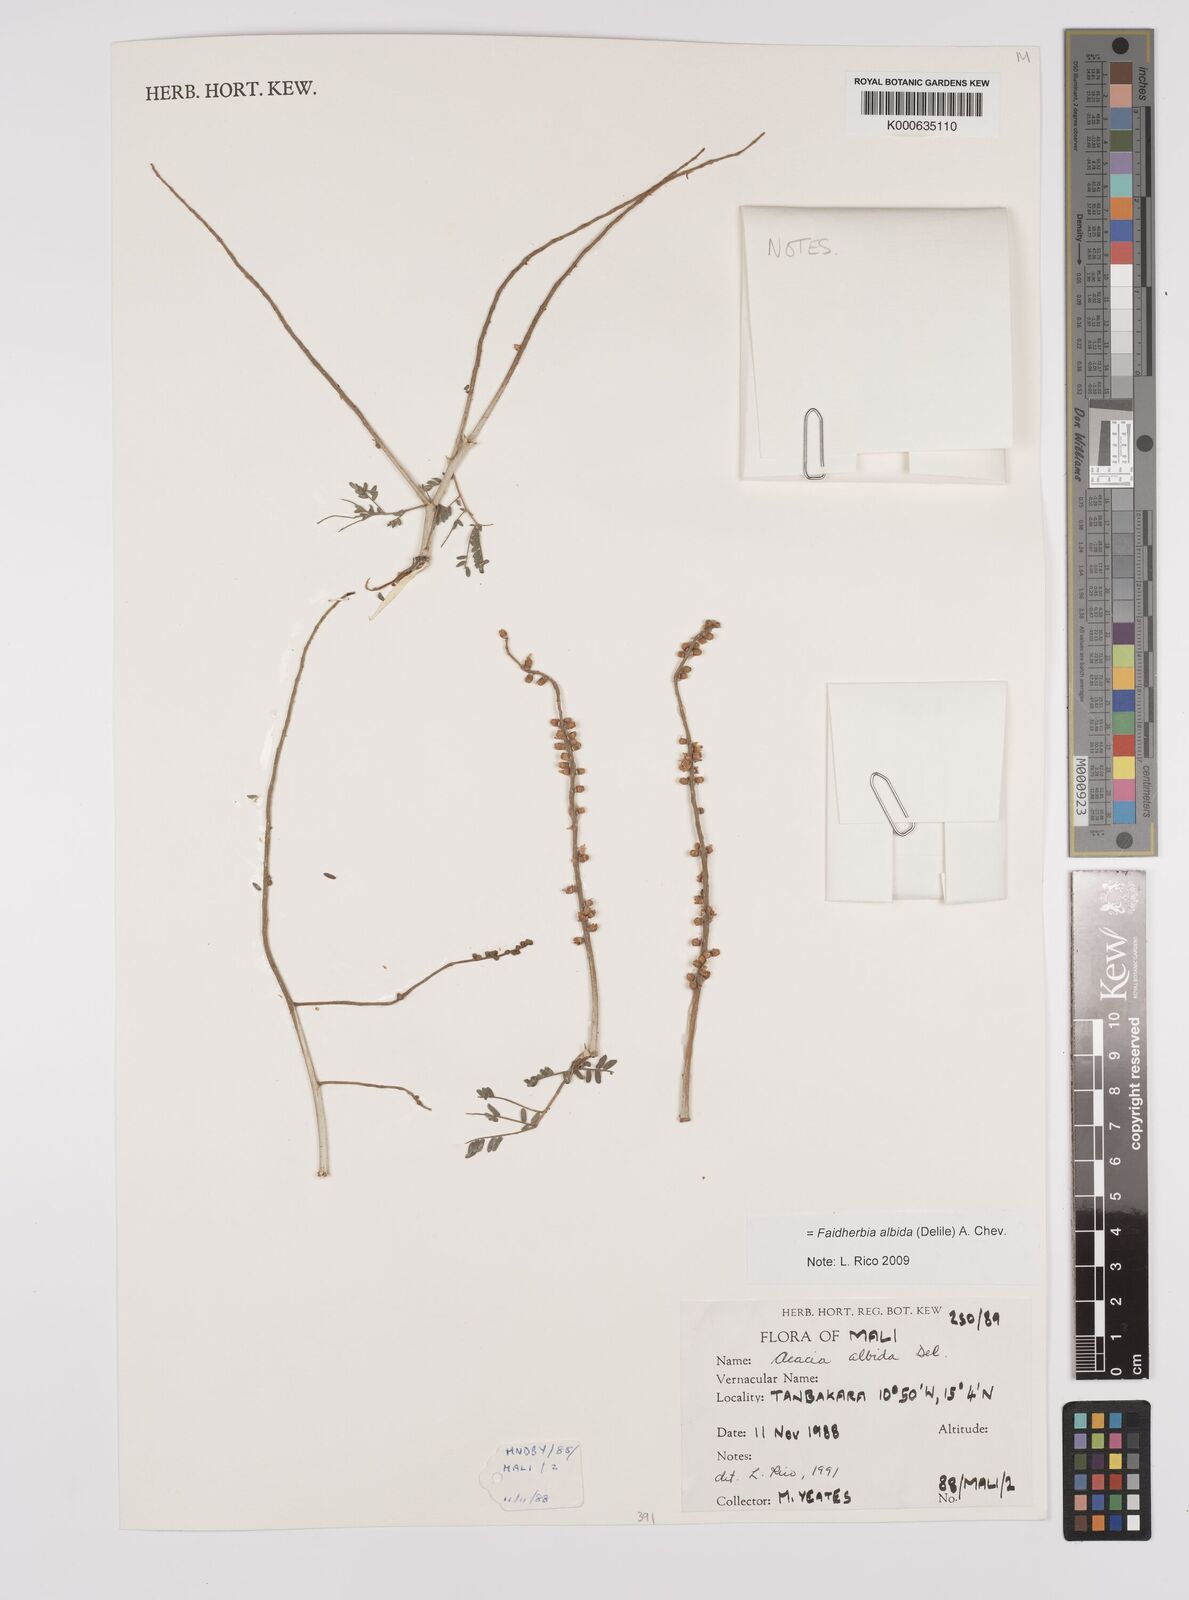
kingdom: Plantae
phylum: Tracheophyta
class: Magnoliopsida
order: Fabales
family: Fabaceae
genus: Faidherbia
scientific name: Faidherbia albida
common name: Anatree
